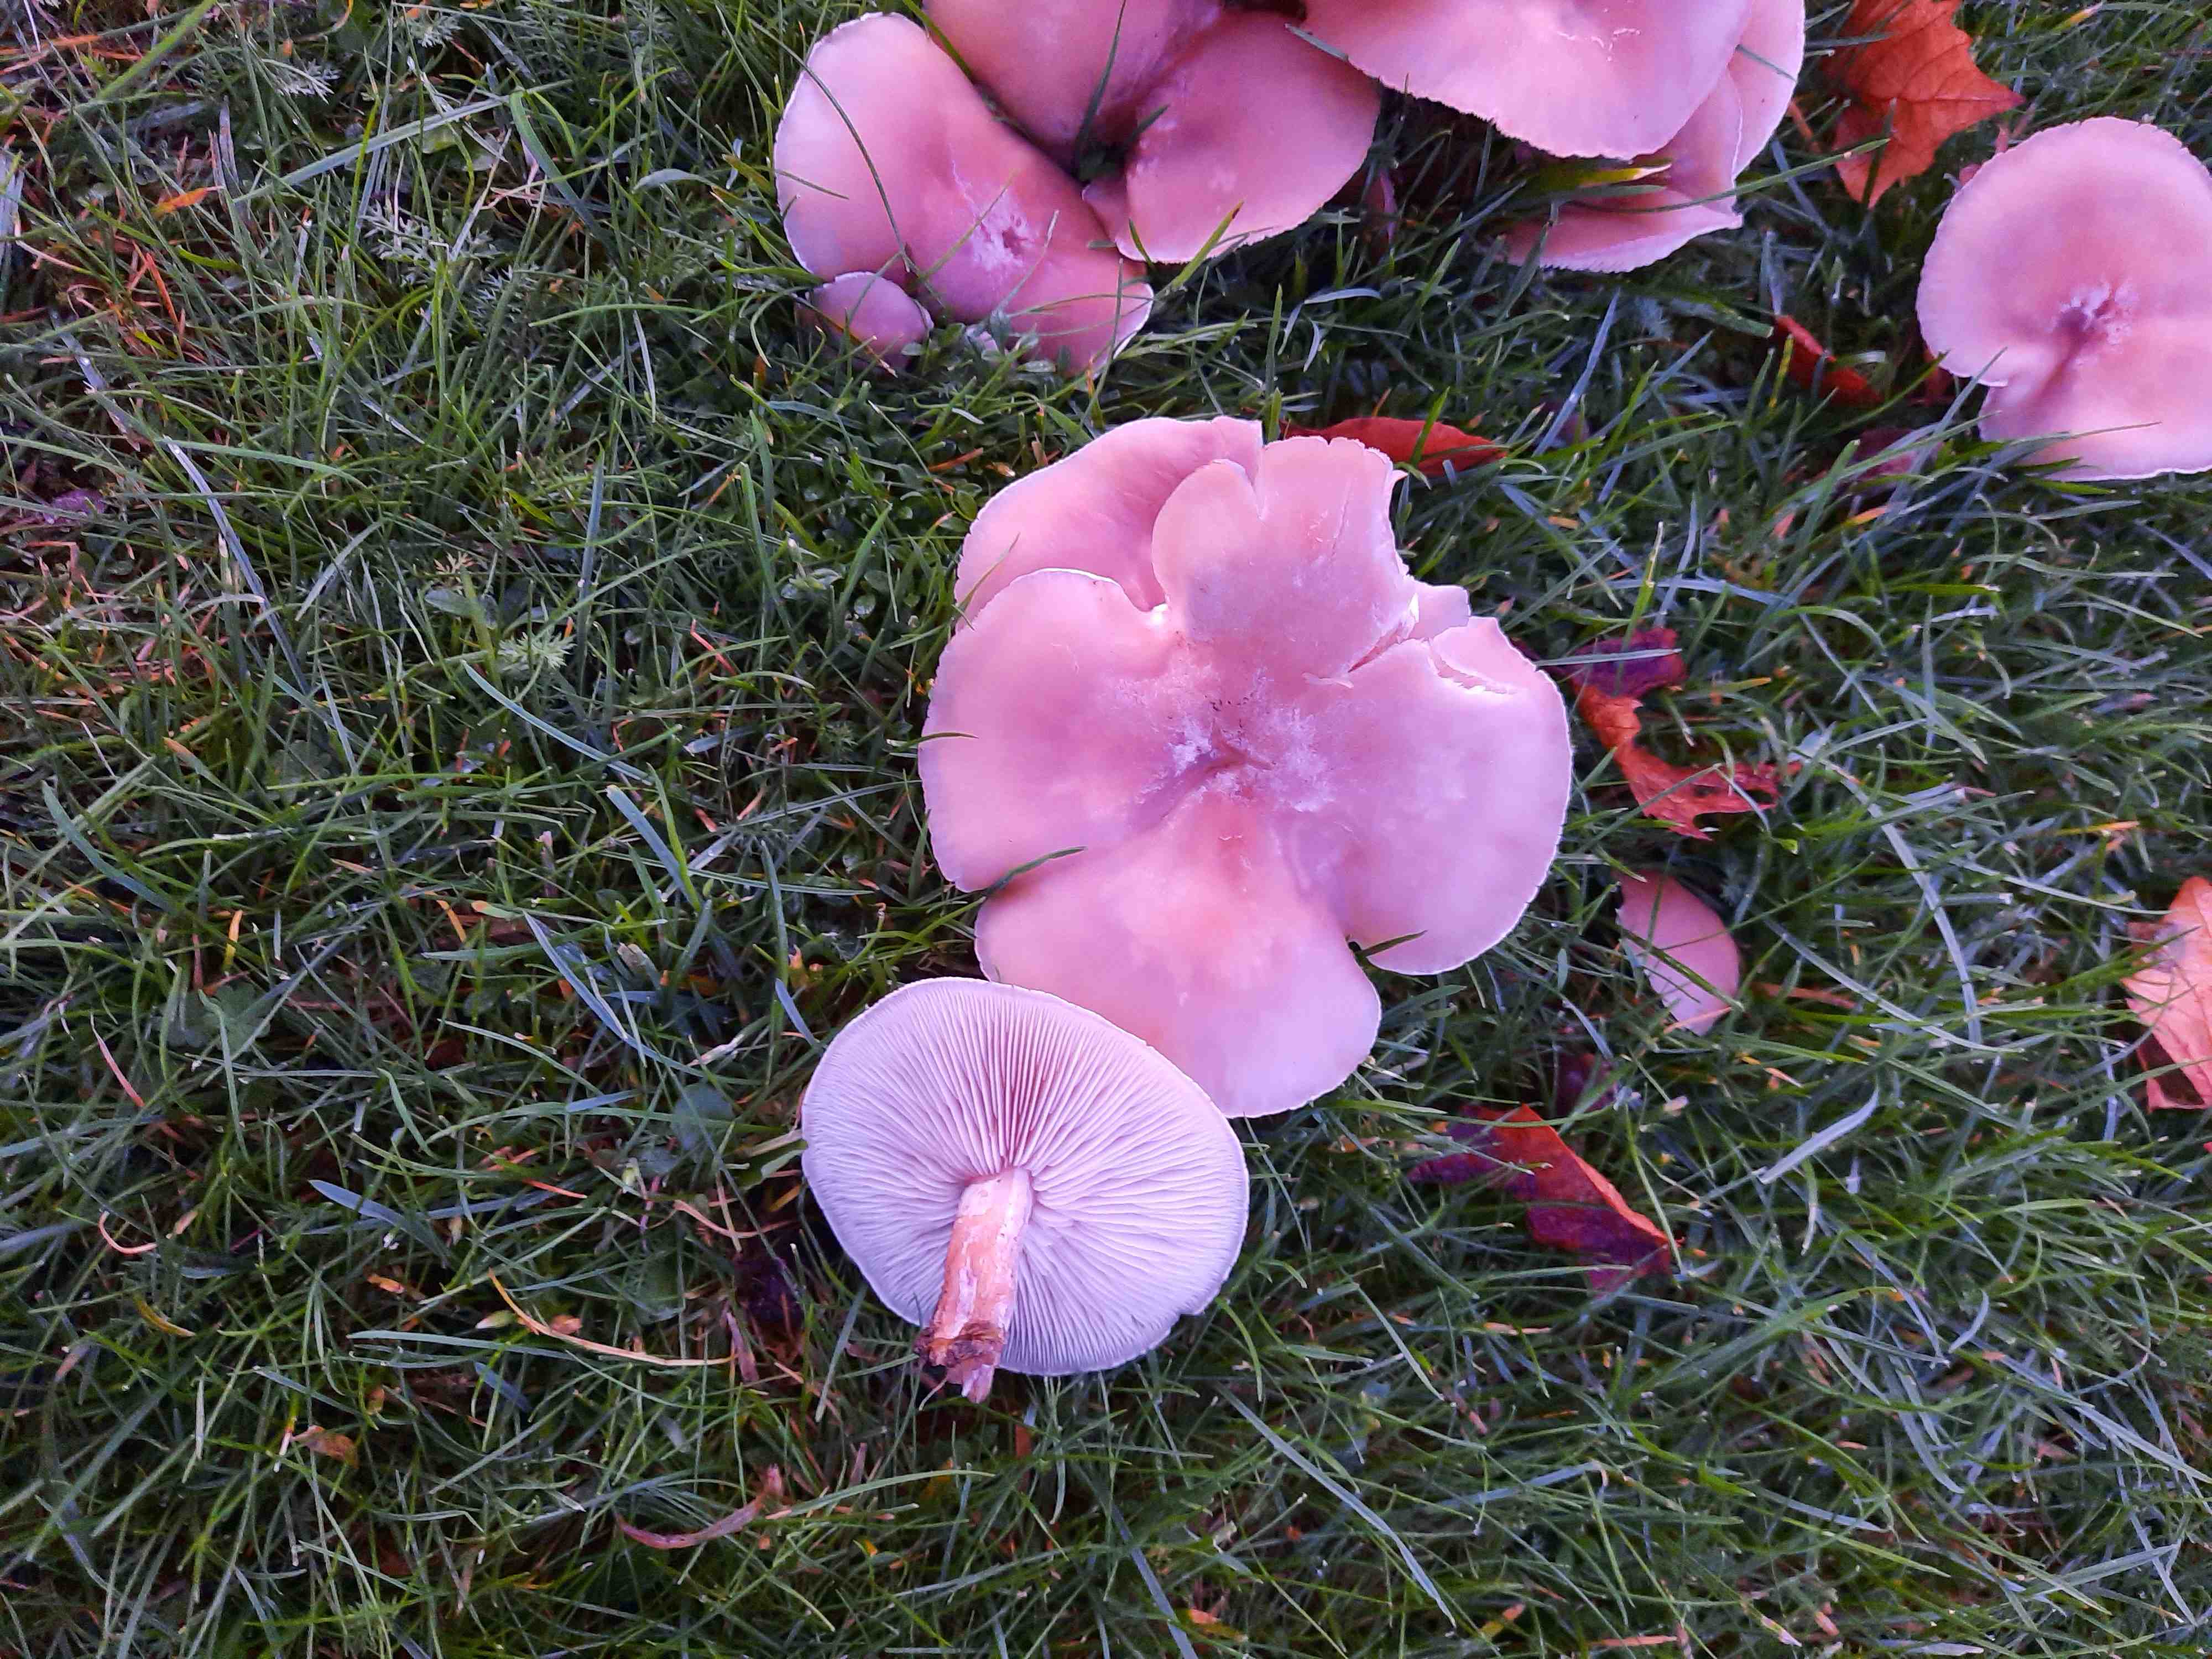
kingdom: Fungi
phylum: Basidiomycota
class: Agaricomycetes
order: Agaricales
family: Tricholomataceae
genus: Lepista
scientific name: Lepista irina
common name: violduftende hekseringshat
